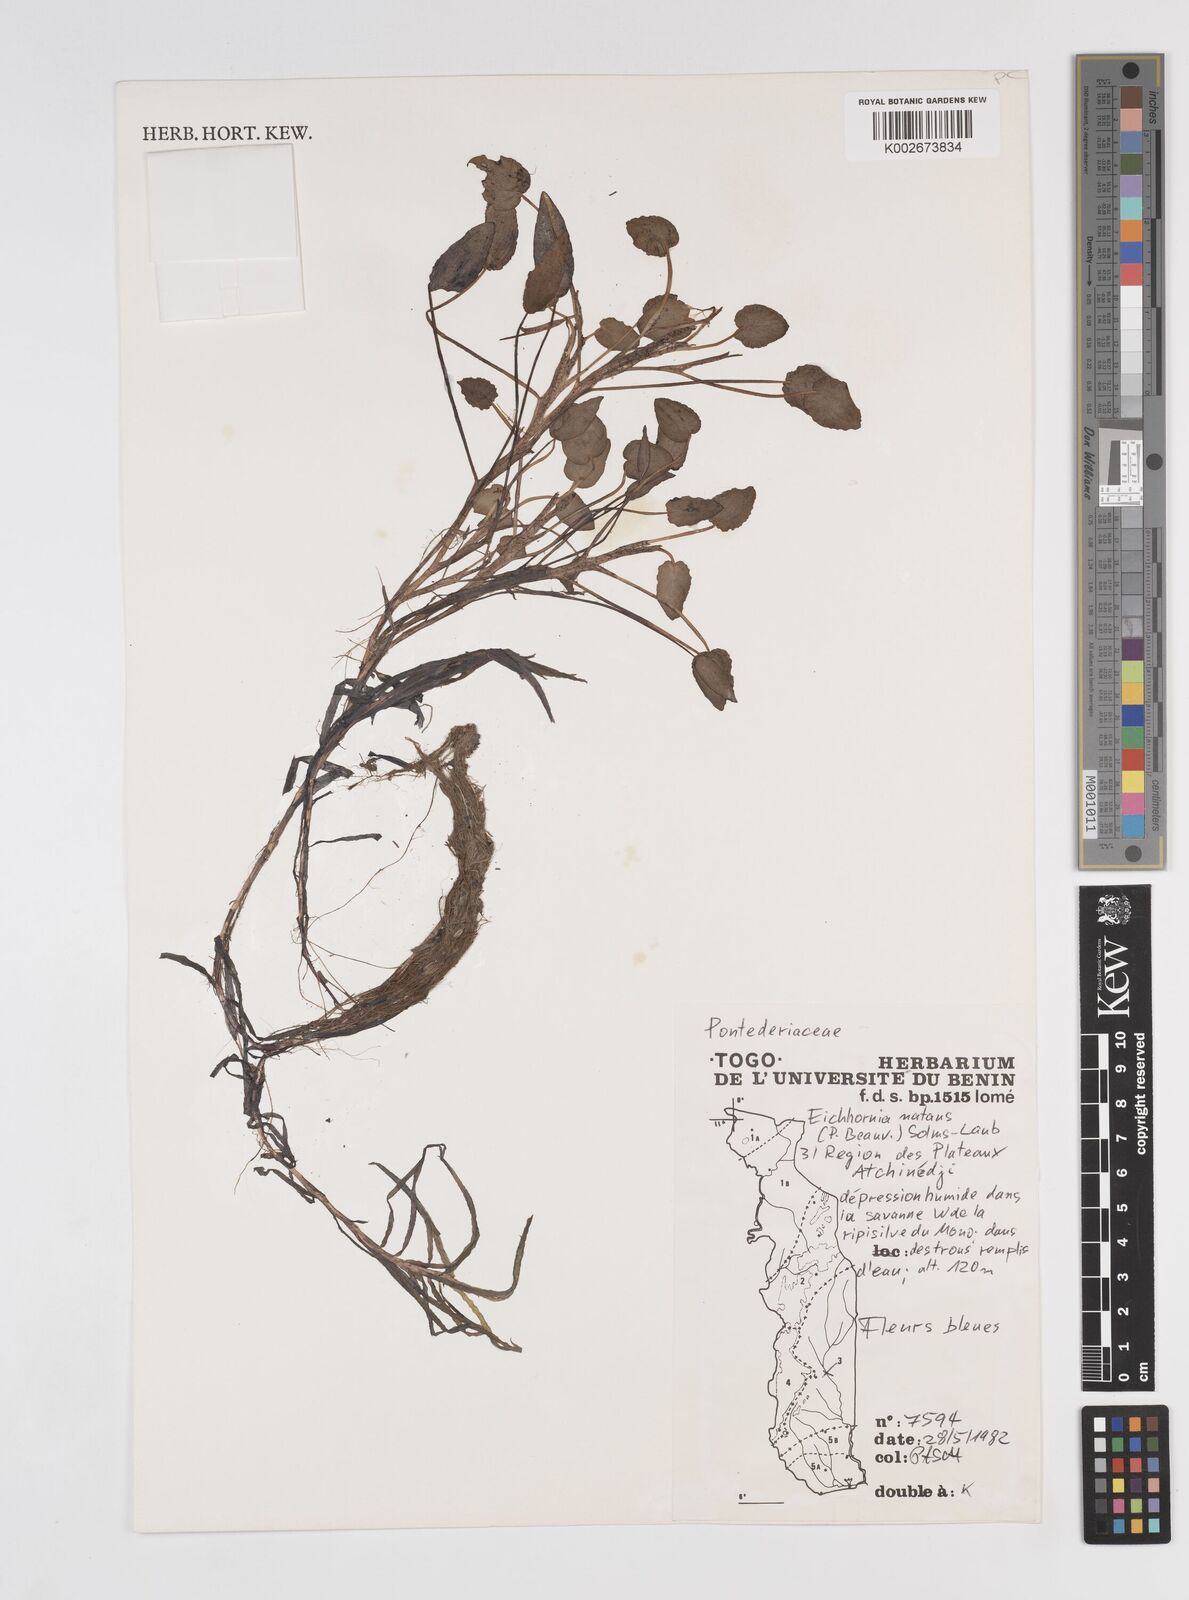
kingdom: Plantae
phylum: Tracheophyta
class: Liliopsida
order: Commelinales
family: Pontederiaceae
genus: Pontederia
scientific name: Pontederia natans
